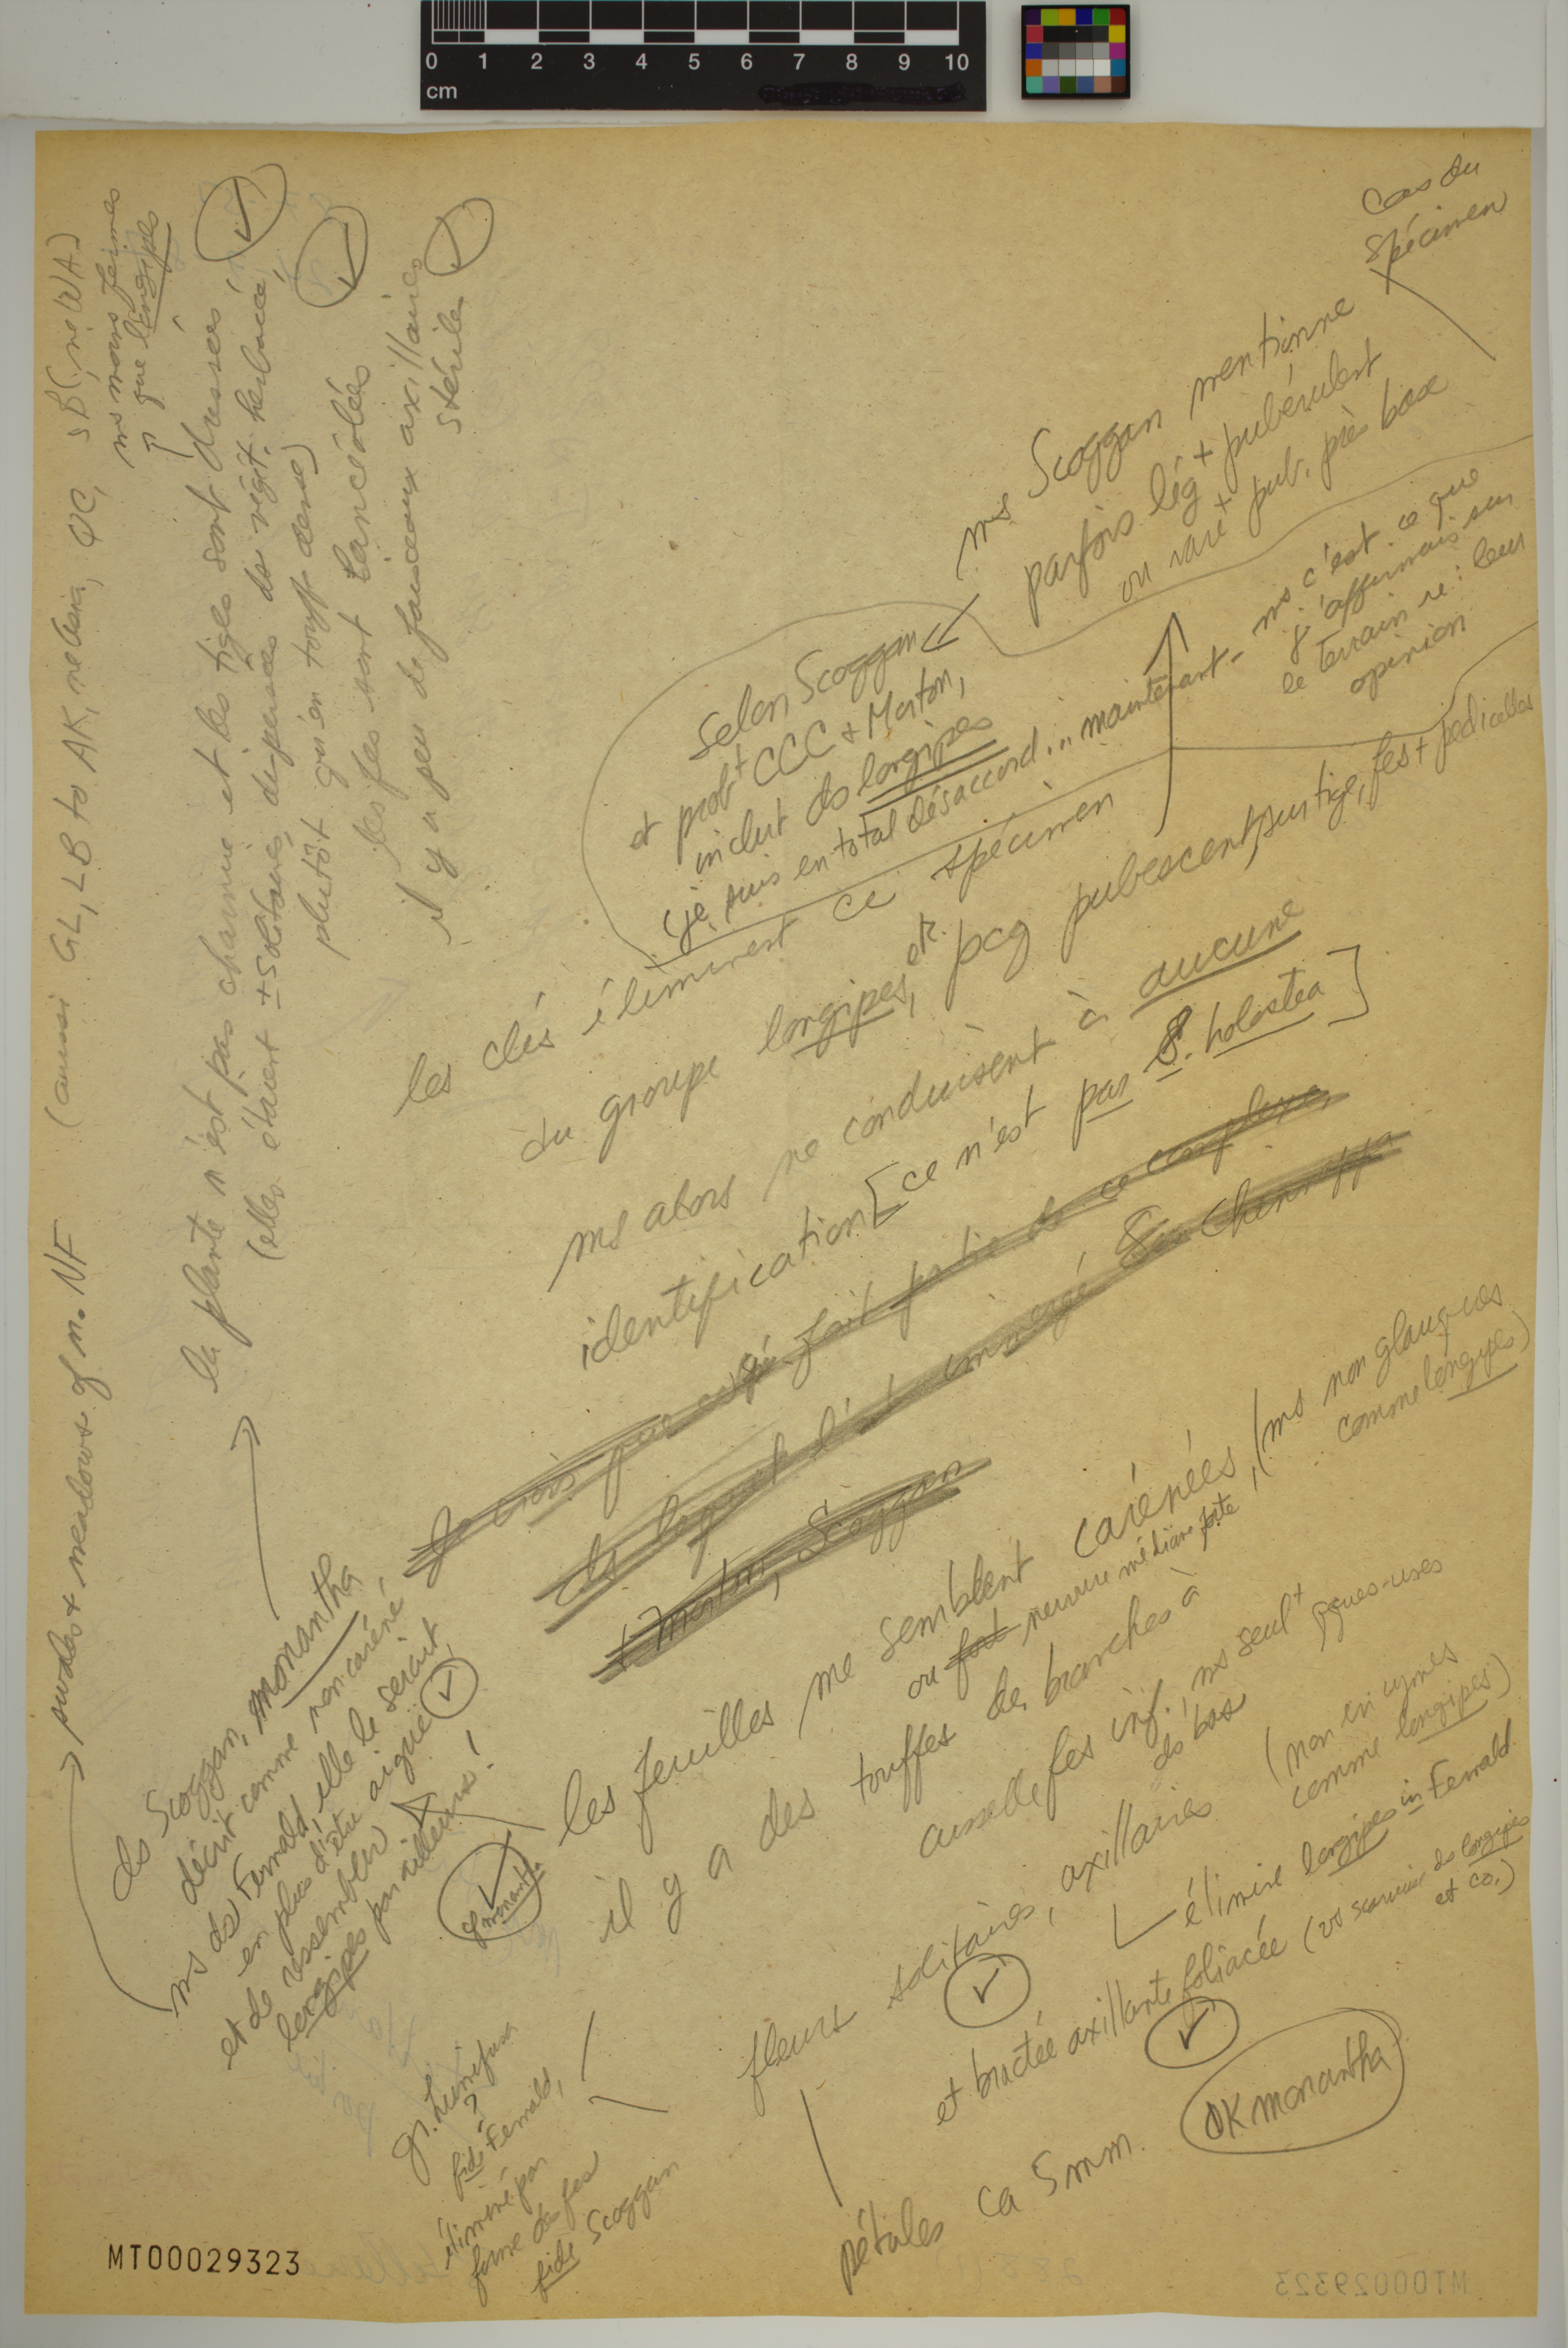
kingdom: Plantae
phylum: Tracheophyta
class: Magnoliopsida
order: Caryophyllales
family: Caryophyllaceae
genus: Stellaria
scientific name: Stellaria longipes
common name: Goldie's starwort
